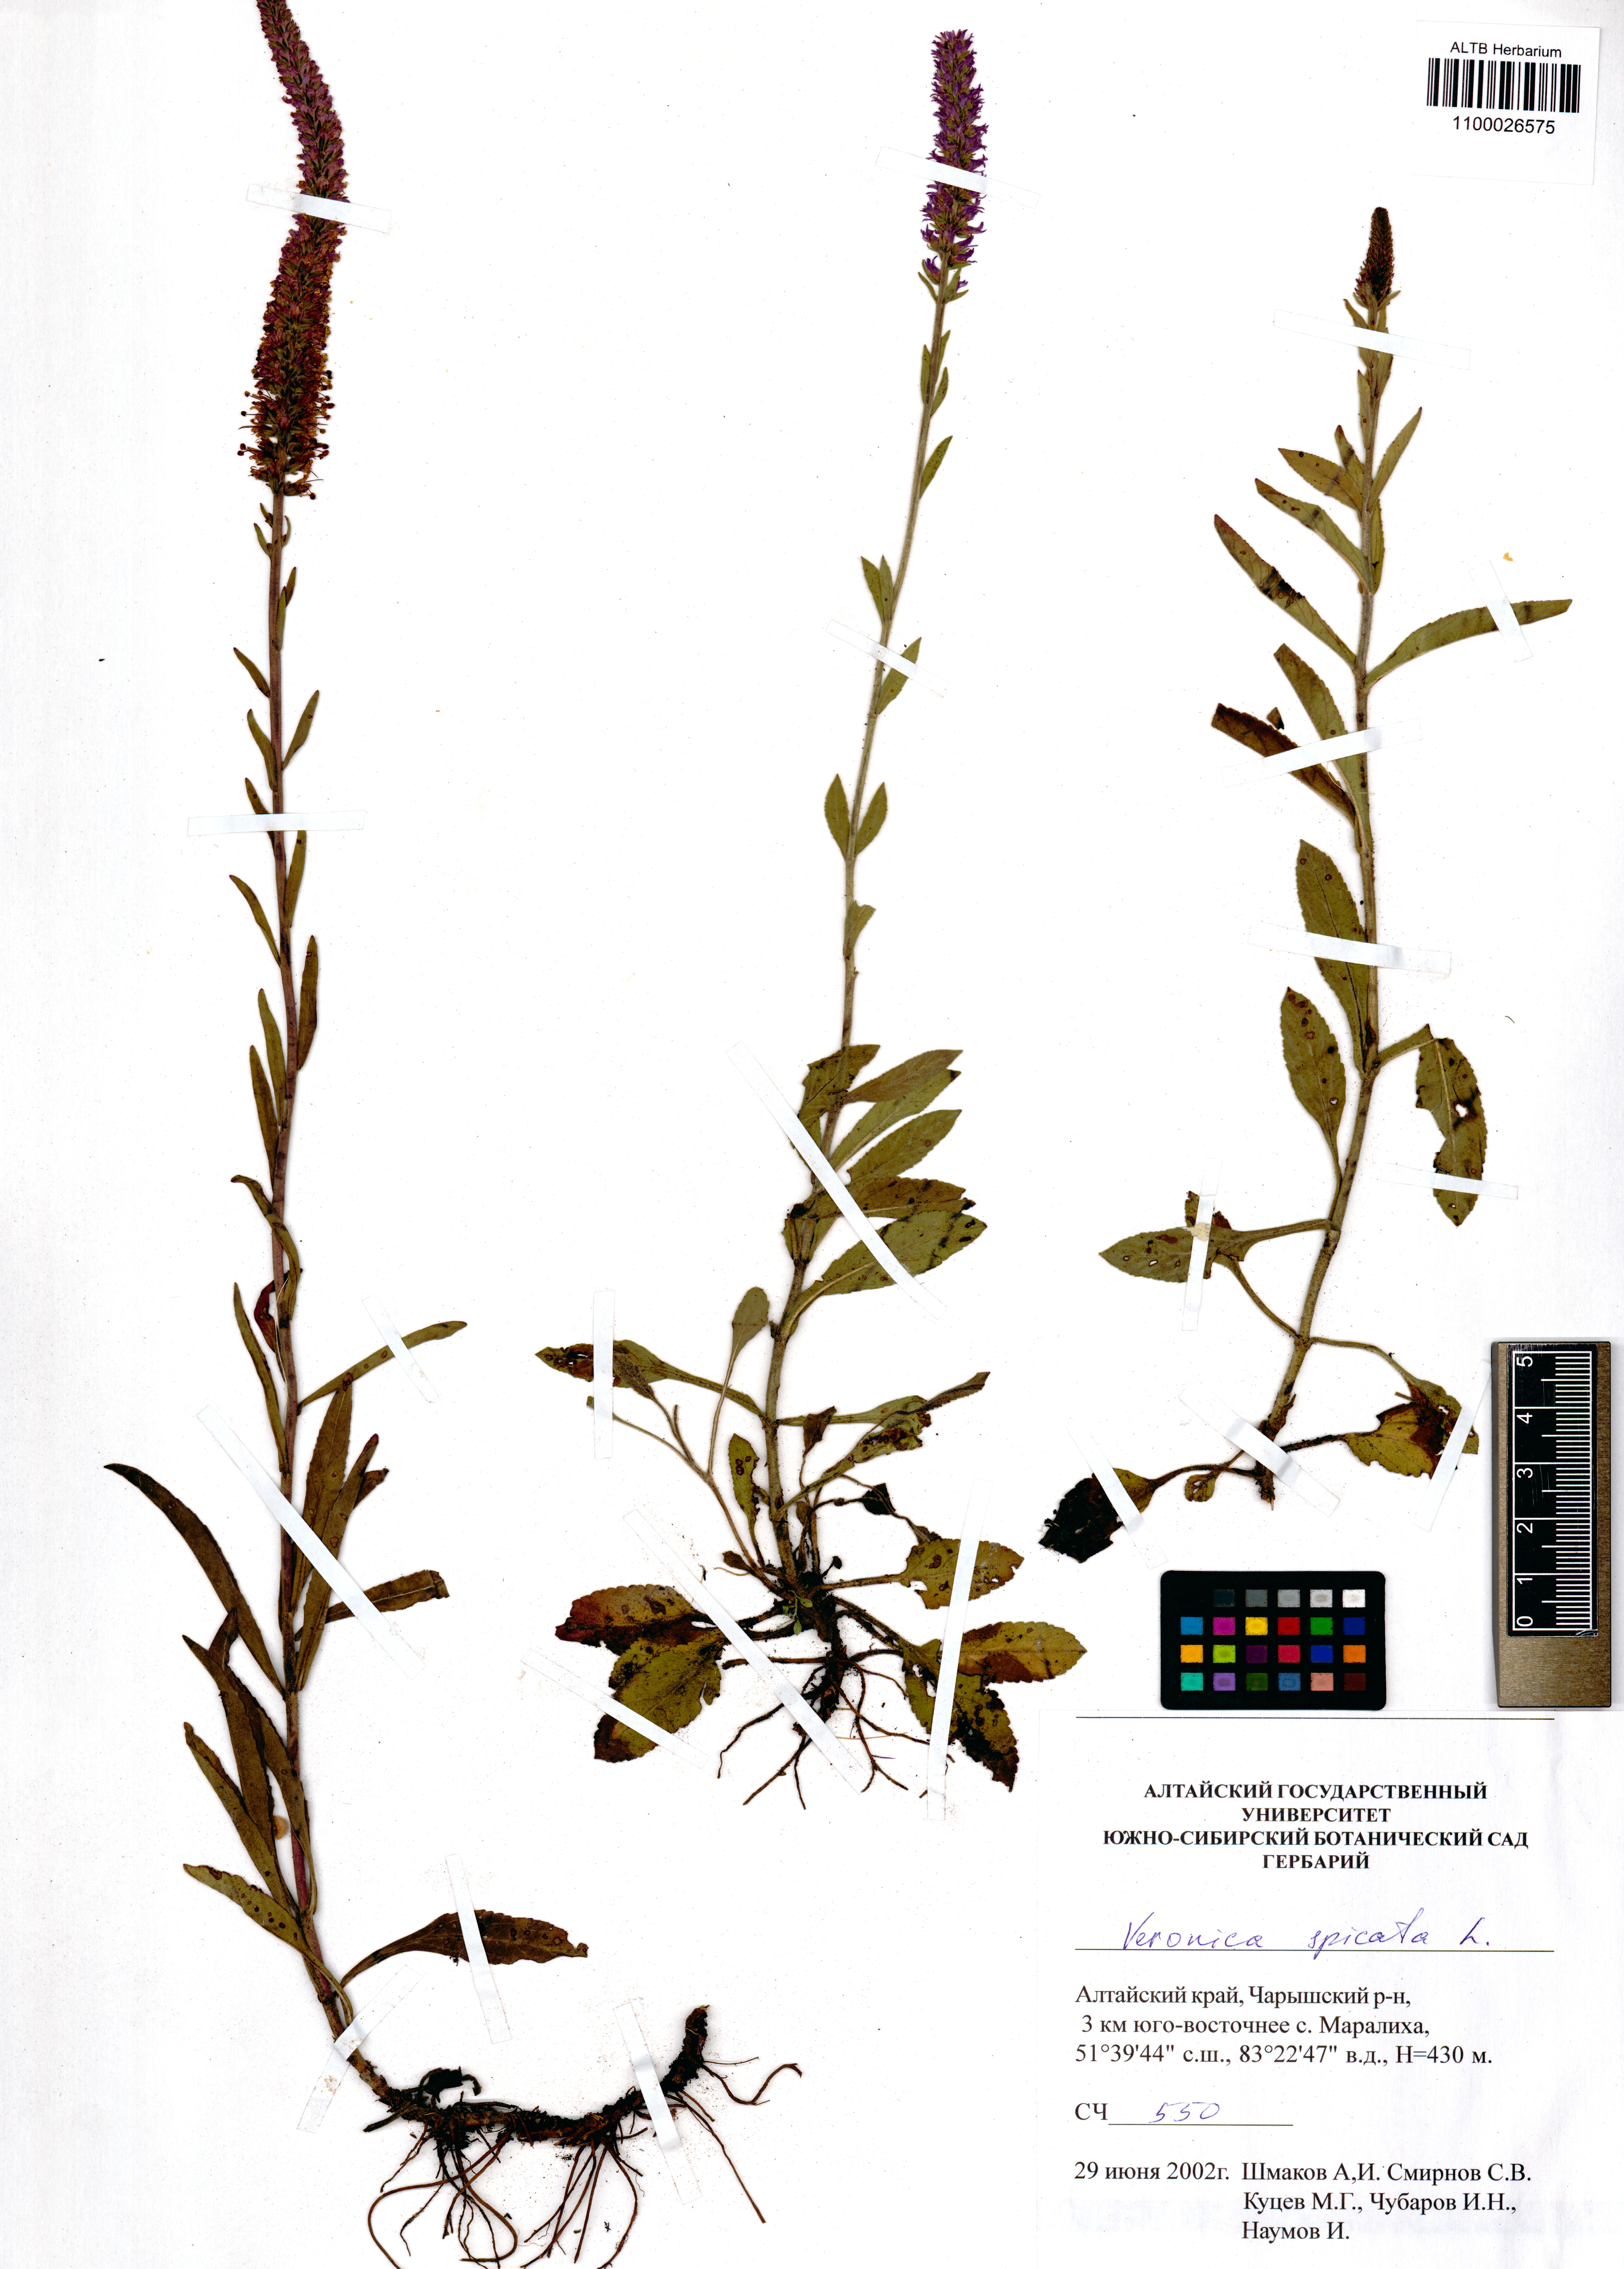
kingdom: Plantae
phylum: Tracheophyta
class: Magnoliopsida
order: Lamiales
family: Plantaginaceae
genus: Veronica
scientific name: Veronica spicata
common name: Spiked speedwell
